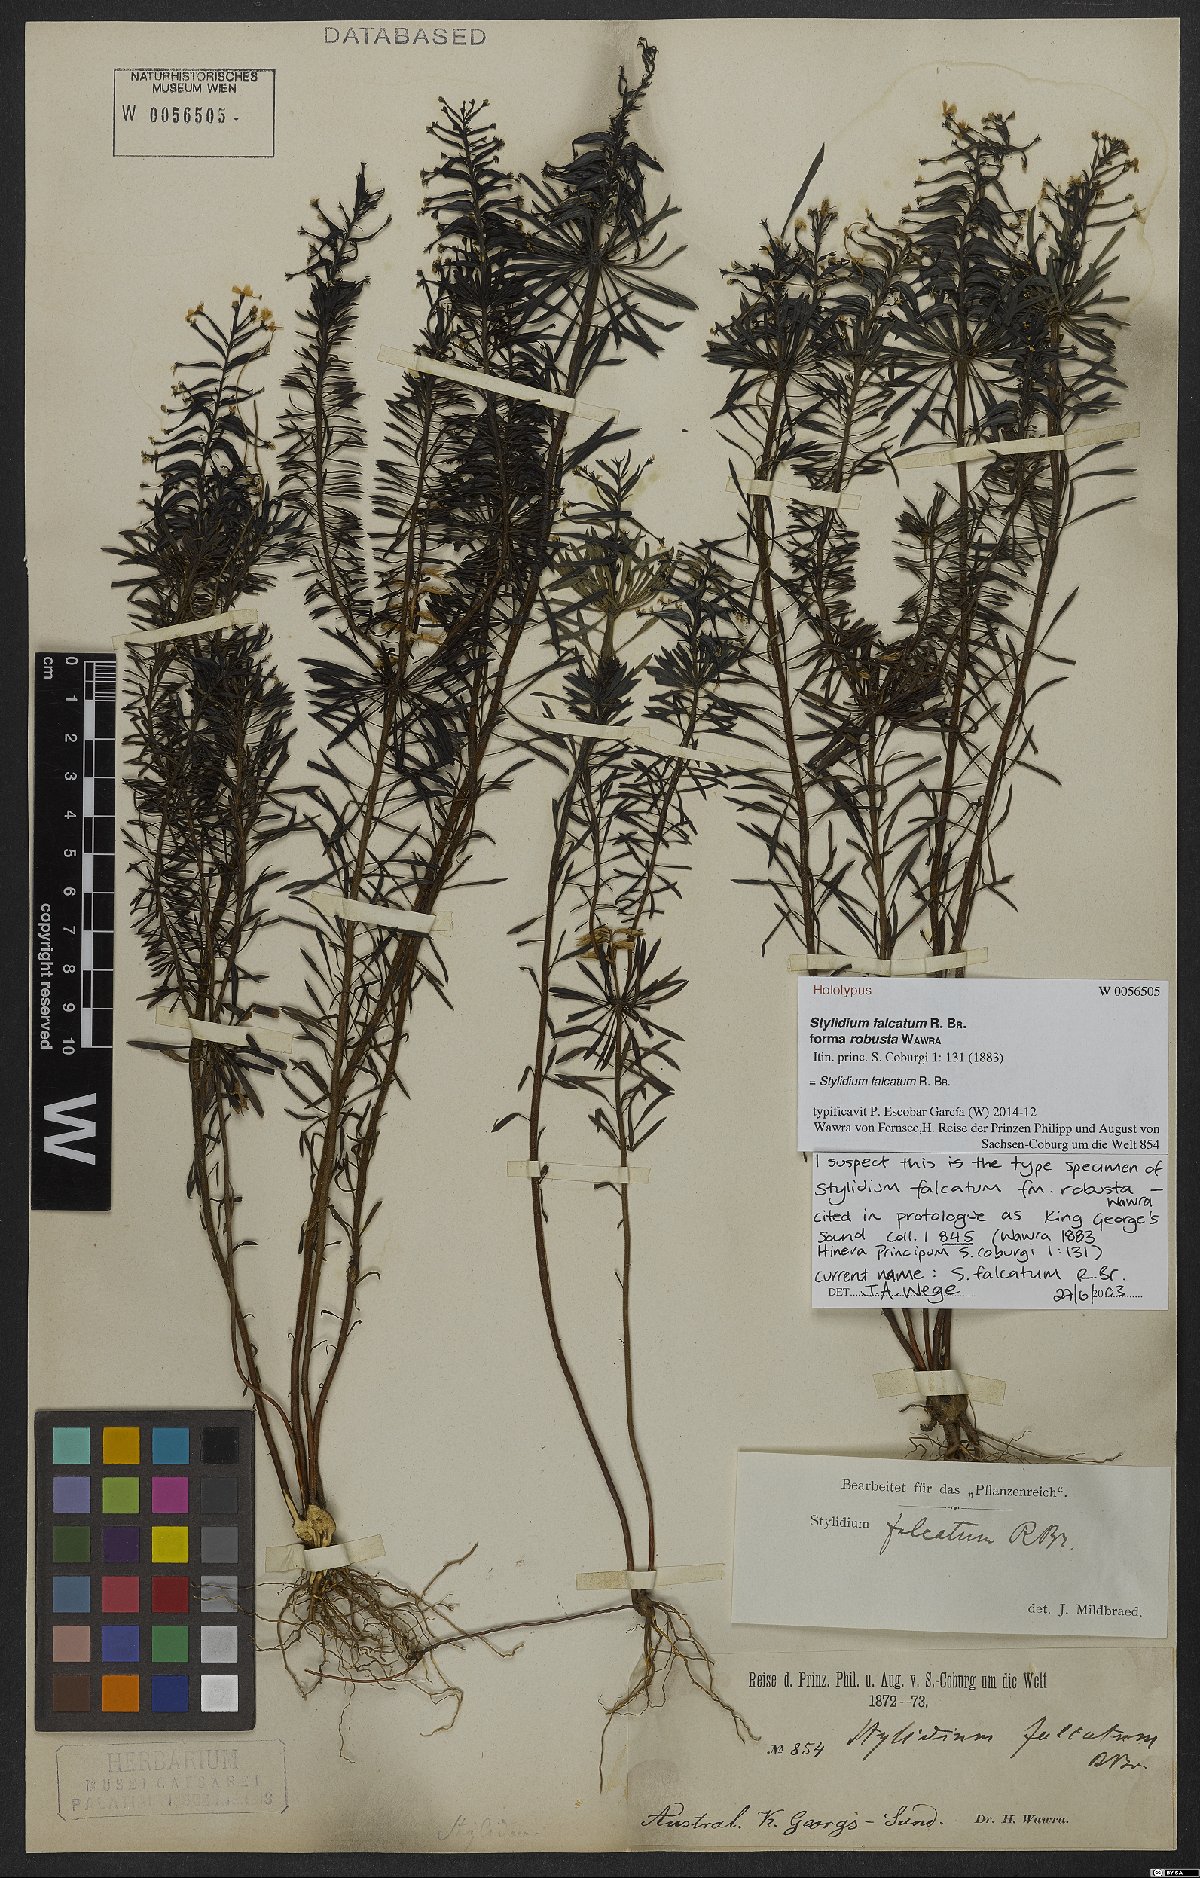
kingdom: Plantae
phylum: Tracheophyta
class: Magnoliopsida
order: Asterales
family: Stylidiaceae
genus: Stylidium
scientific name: Stylidium falcatum
